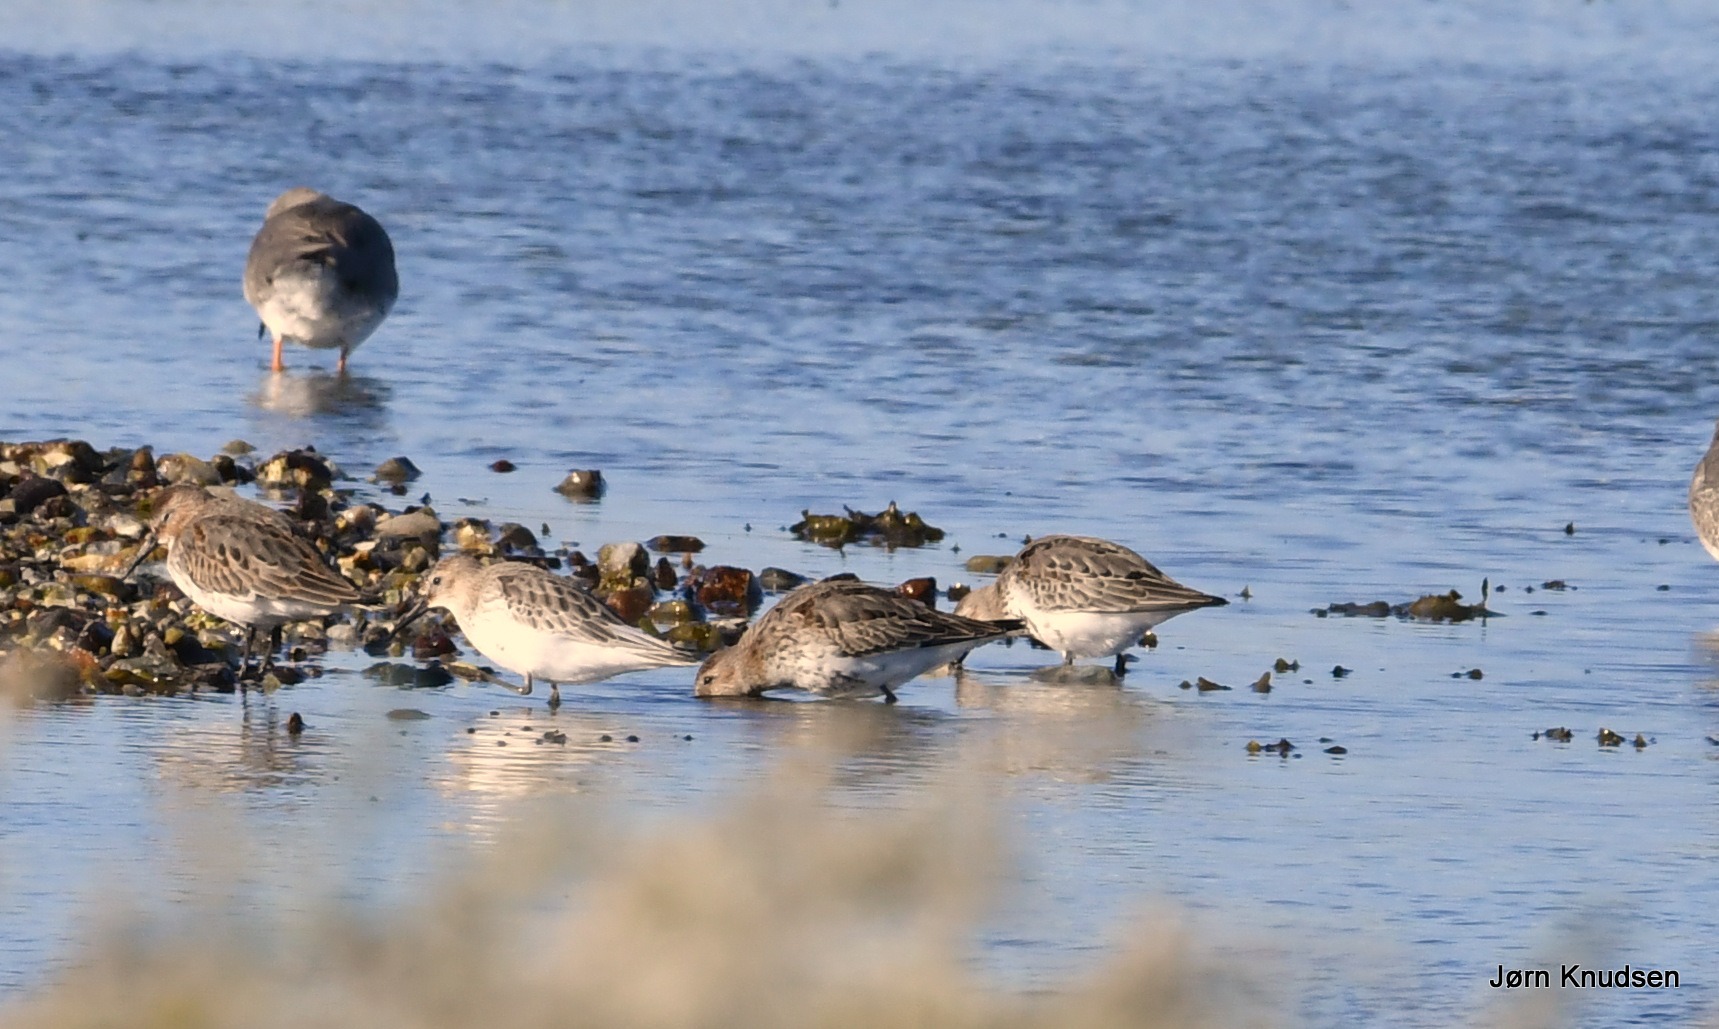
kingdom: Animalia
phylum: Chordata
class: Aves
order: Charadriiformes
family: Scolopacidae
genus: Calidris
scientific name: Calidris alpina
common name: Almindelig ryle
